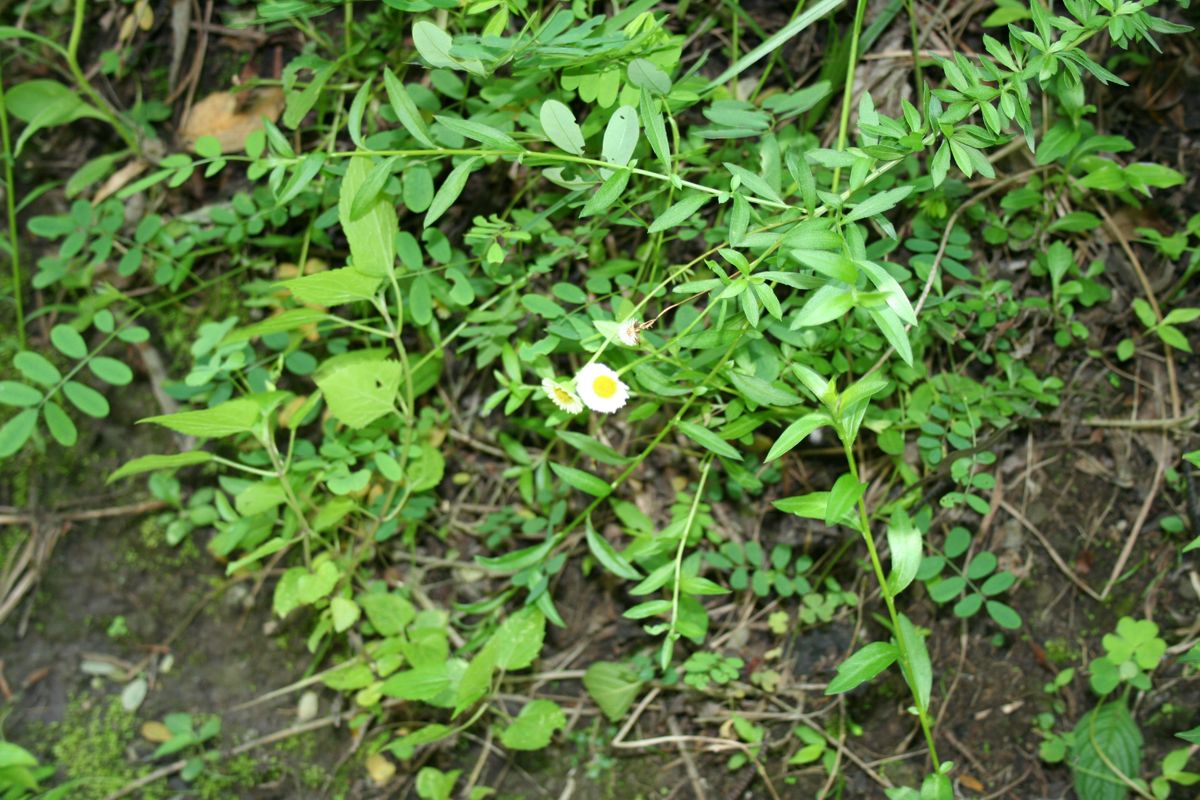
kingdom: Plantae
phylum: Tracheophyta
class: Magnoliopsida
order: Asterales
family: Asteraceae
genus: Erigeron
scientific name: Erigeron karvinskianus
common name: Mexican fleabane
